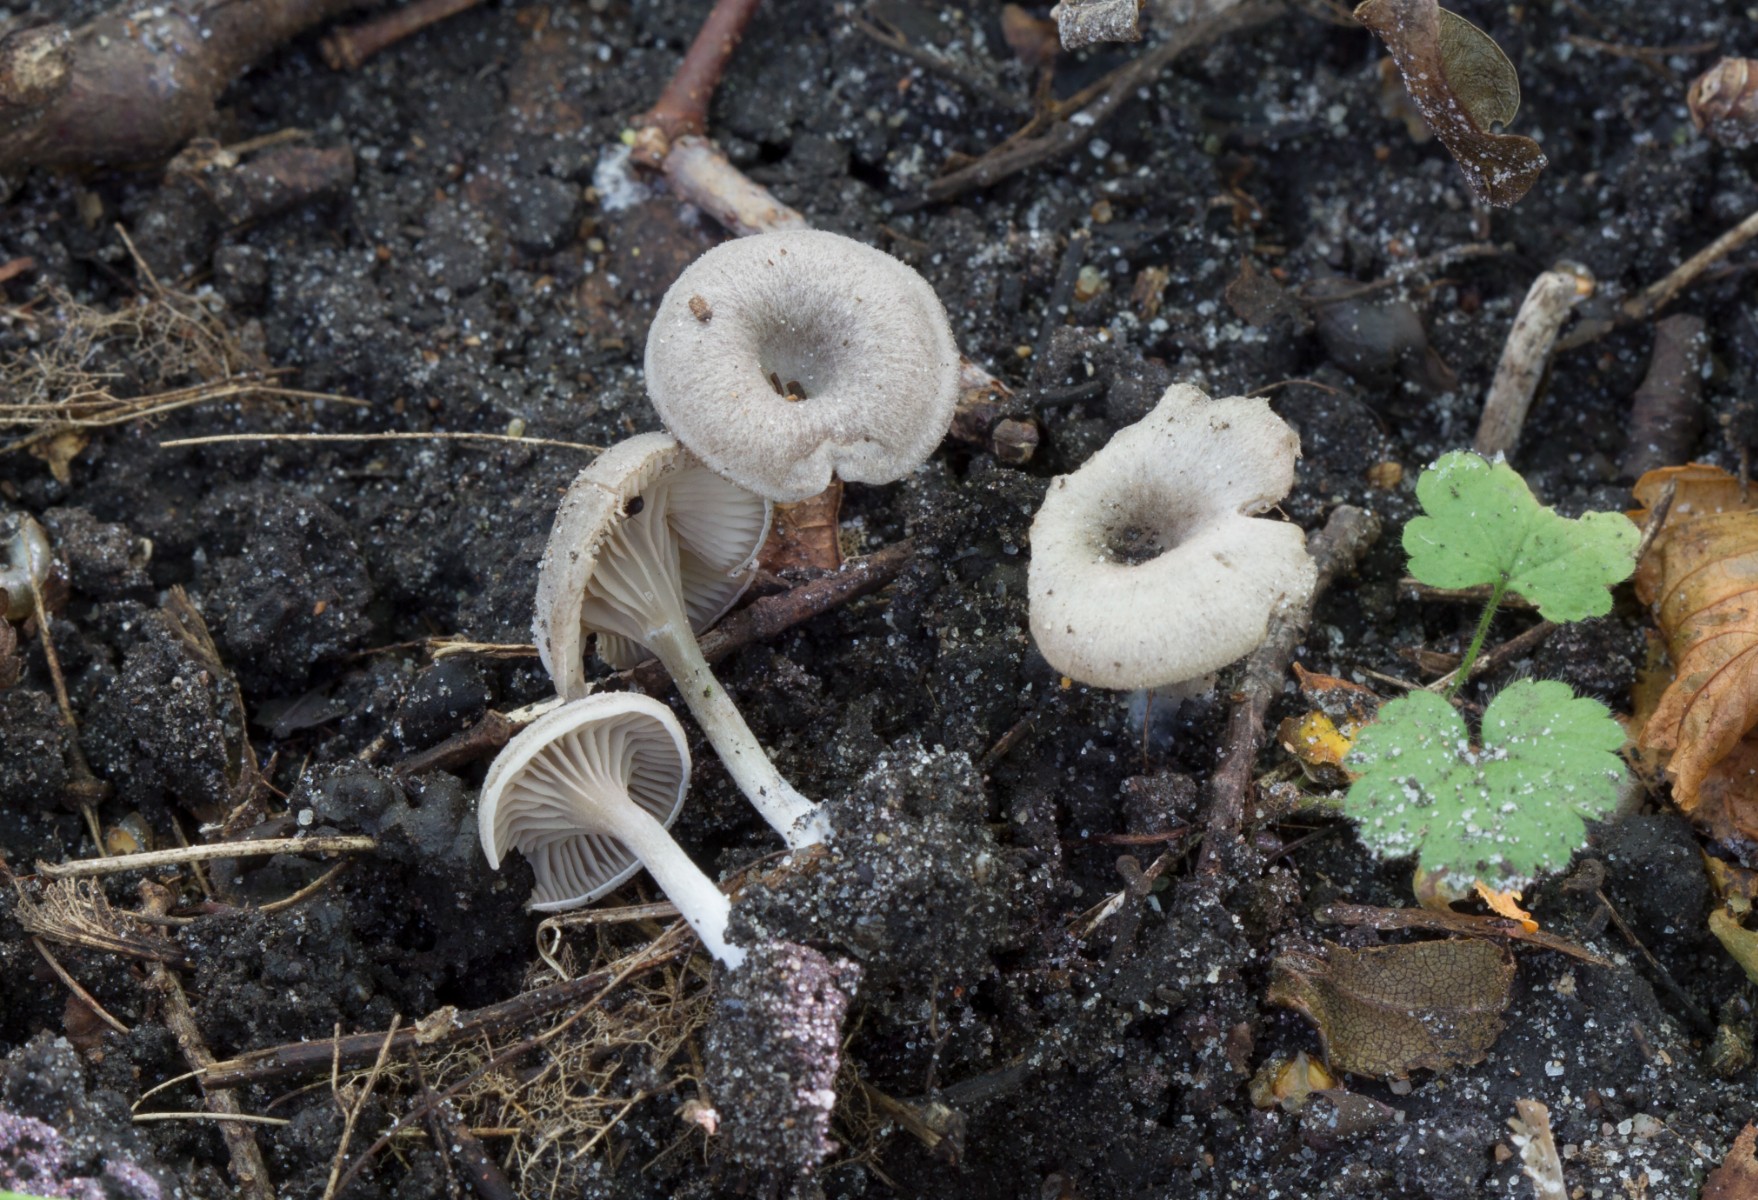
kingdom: Fungi
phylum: Basidiomycota
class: Agaricomycetes
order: Agaricales
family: Entolomataceae
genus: Entoloma
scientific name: Entoloma
